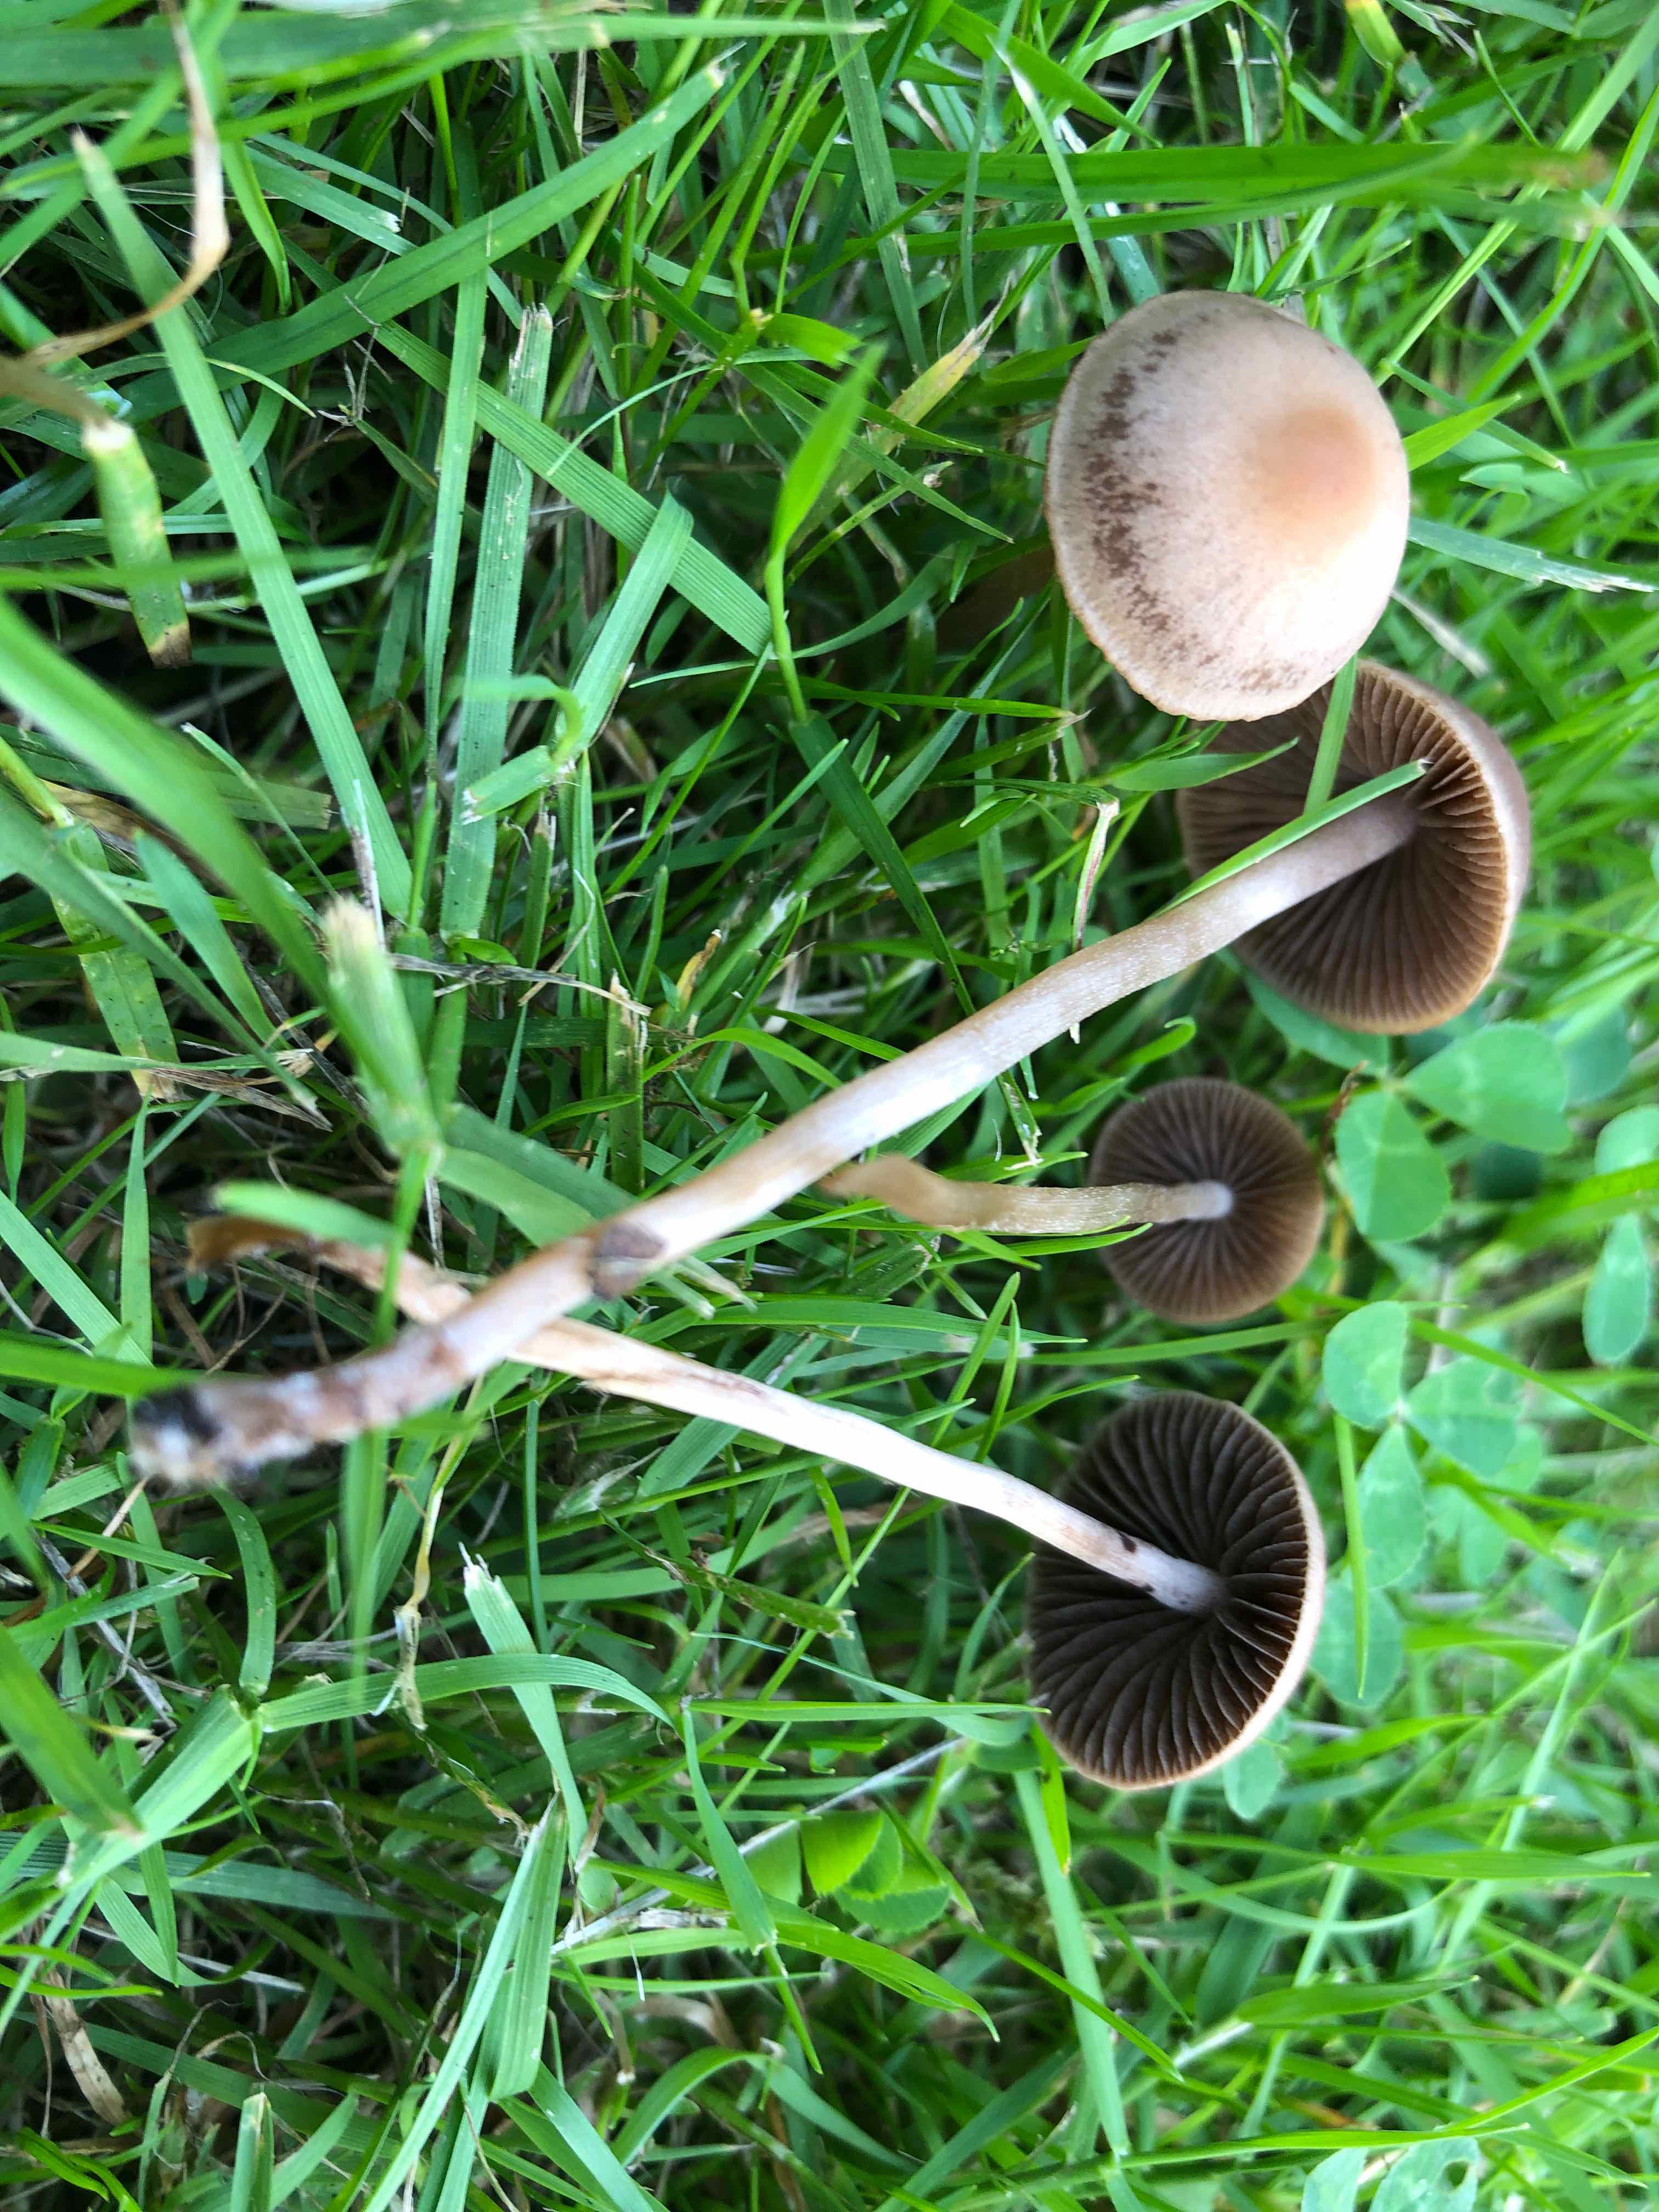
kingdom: Fungi
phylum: Basidiomycota
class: Agaricomycetes
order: Agaricales
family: Bolbitiaceae
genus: Panaeolina
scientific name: Panaeolina foenisecii
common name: høslætsvamp
